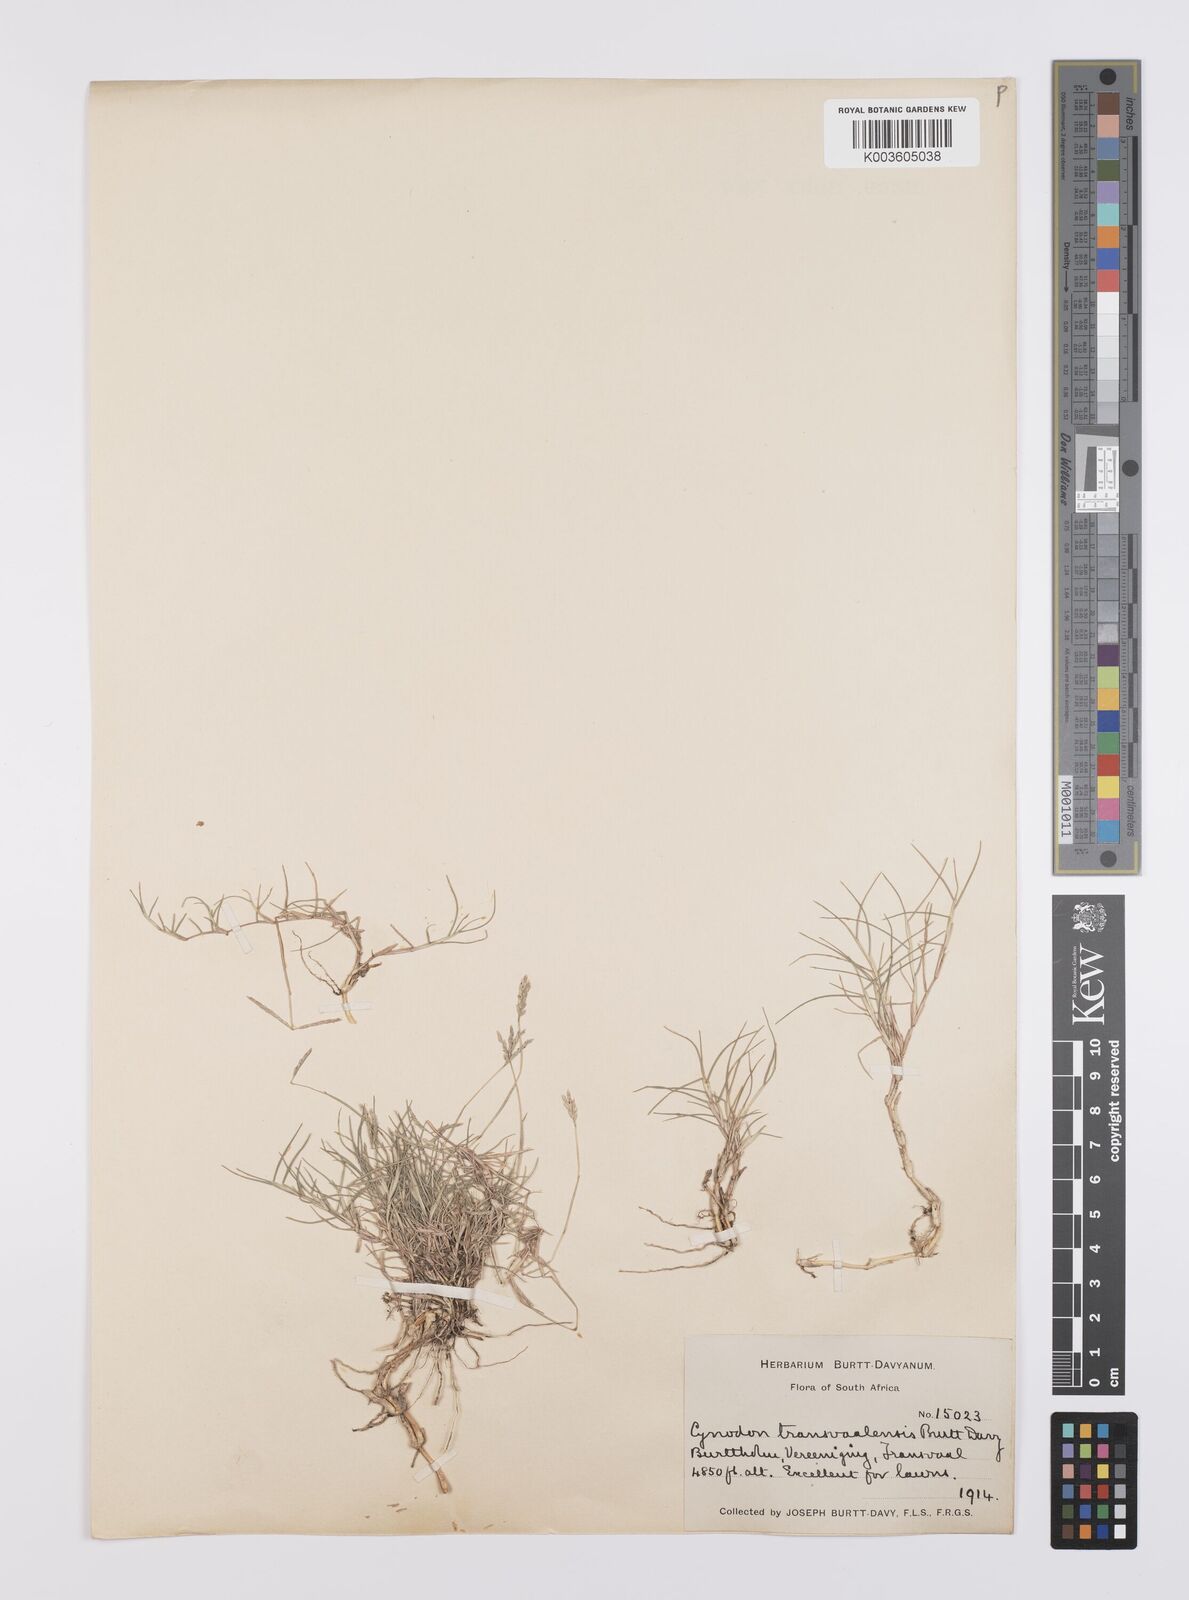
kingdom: Plantae
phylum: Tracheophyta
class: Liliopsida
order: Poales
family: Poaceae
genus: Cynodon
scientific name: Cynodon transvaalensis
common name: African bermuda grass
